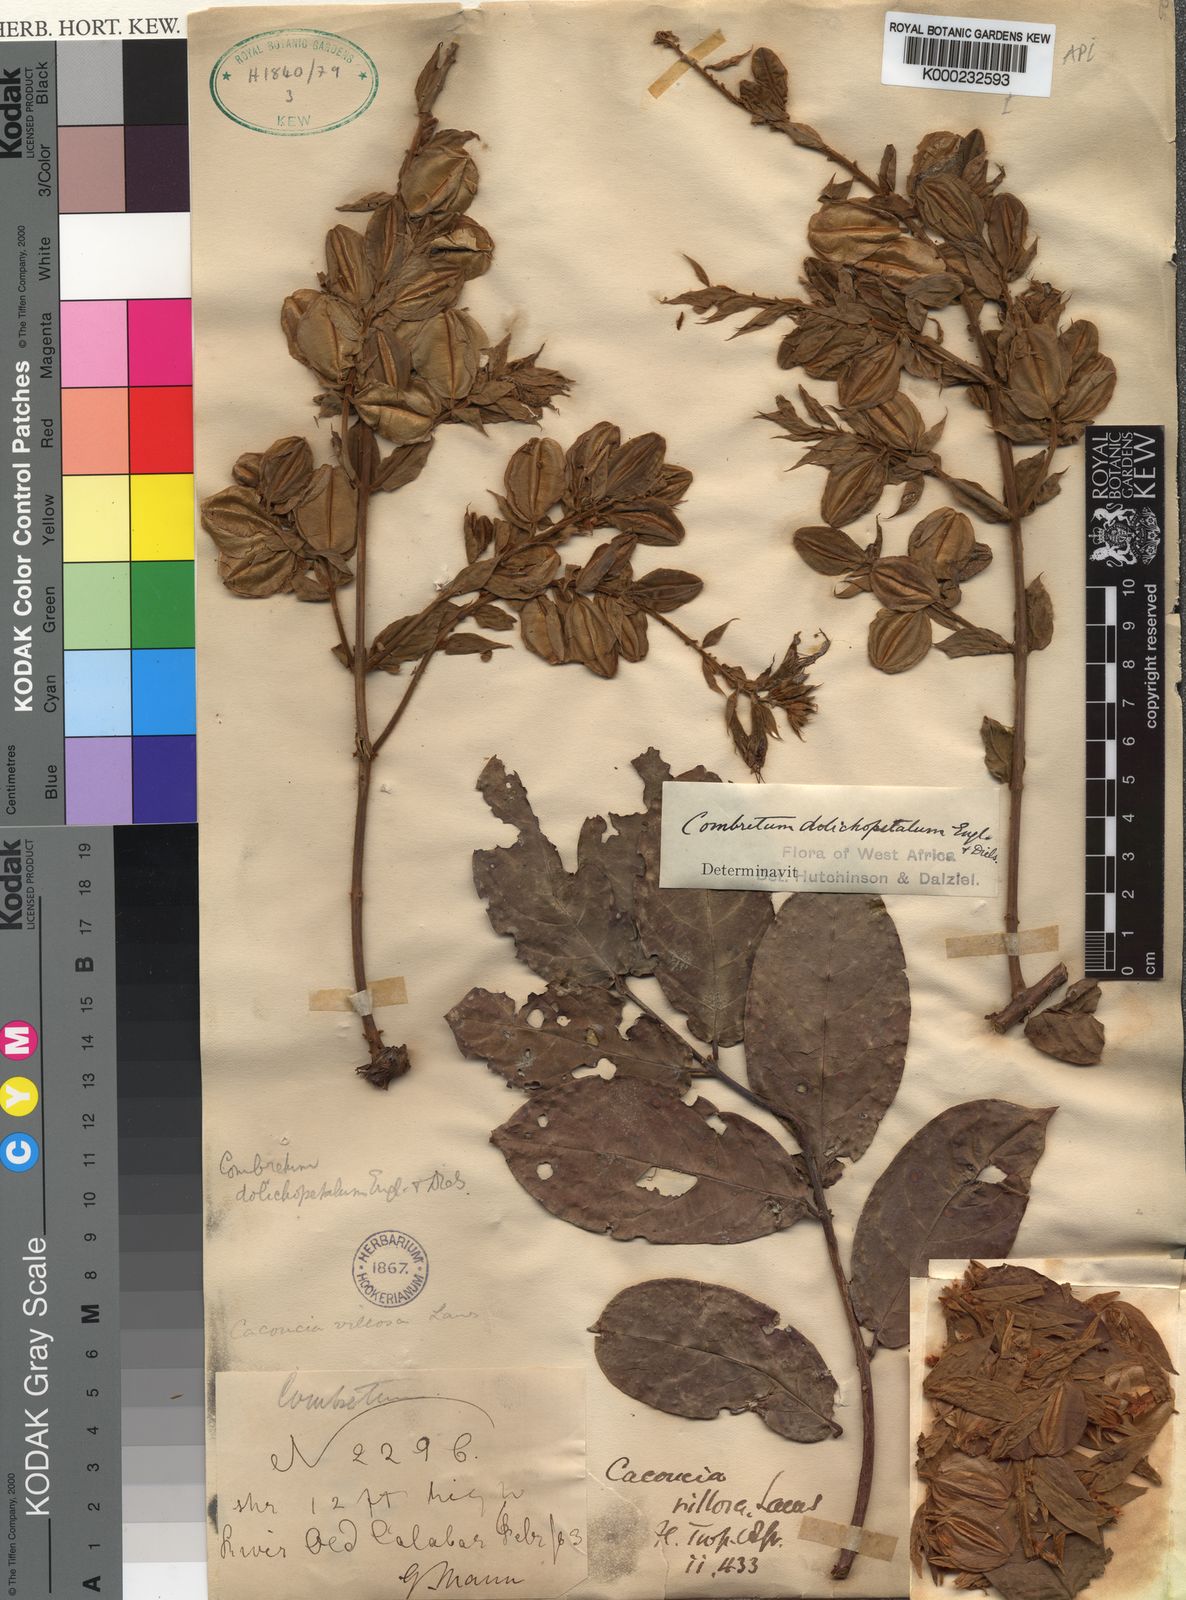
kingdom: Plantae
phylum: Tracheophyta
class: Magnoliopsida
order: Myrtales
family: Combretaceae
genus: Combretum
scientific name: Combretum comosum
